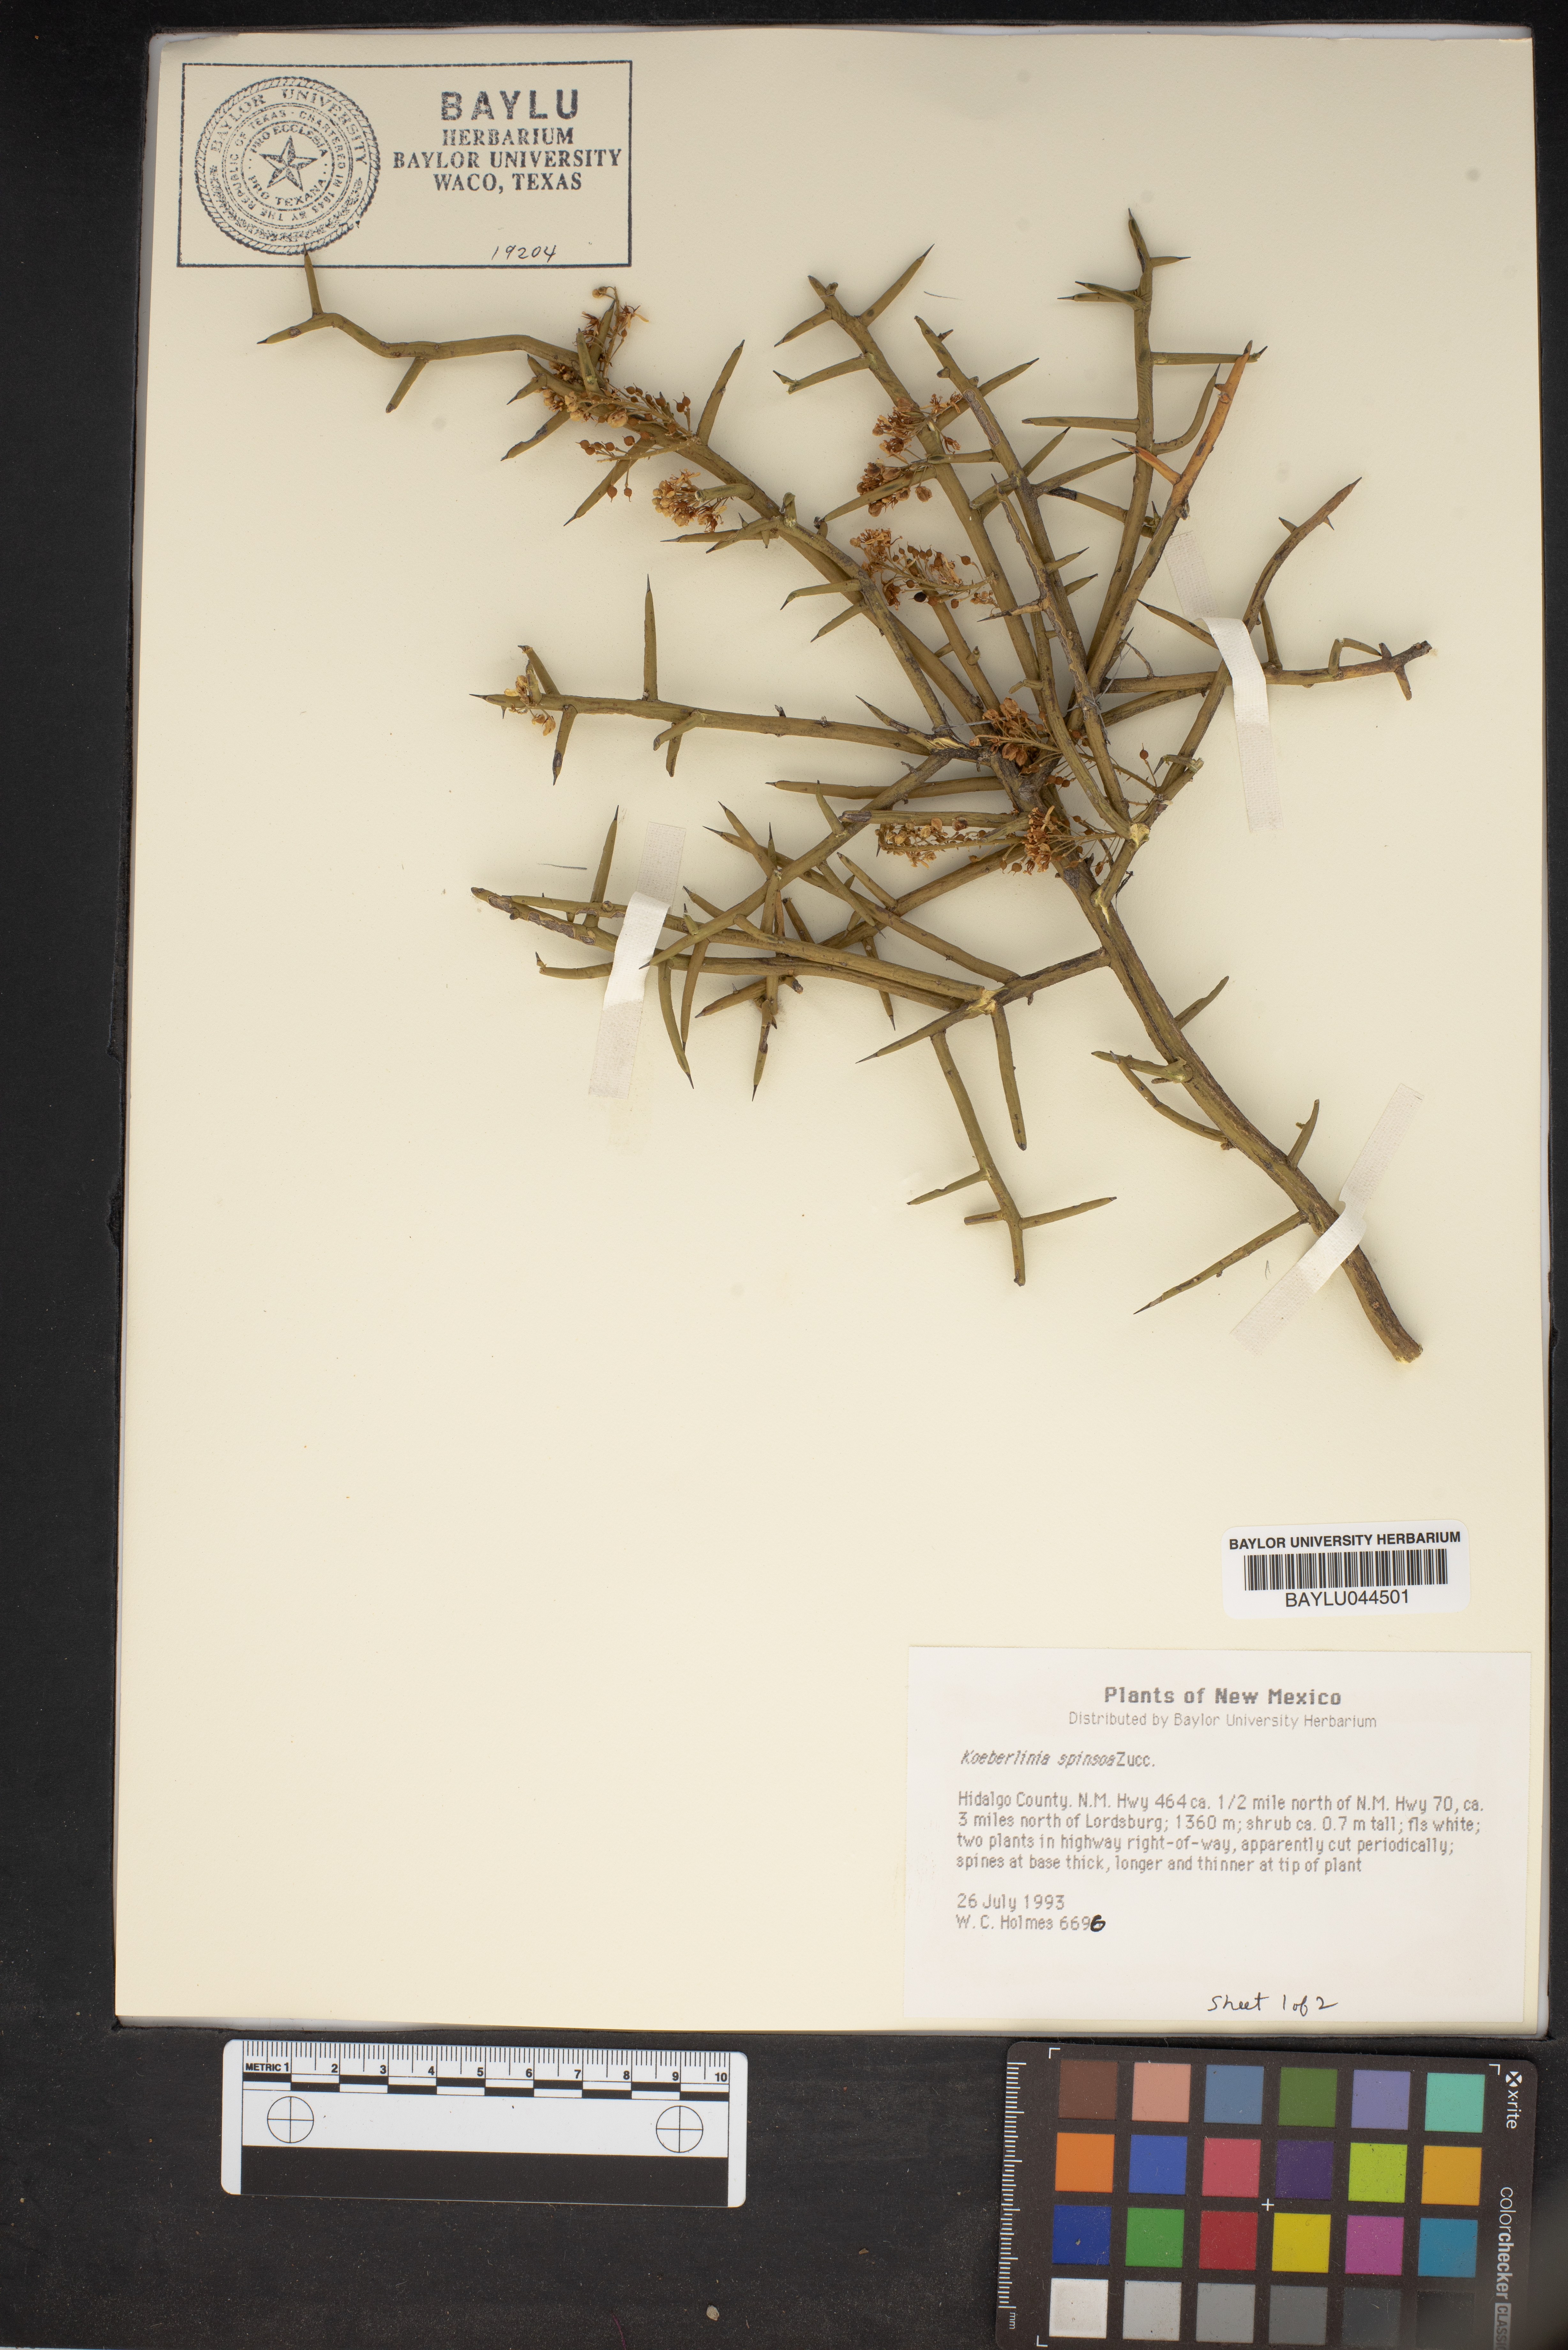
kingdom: Plantae
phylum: Tracheophyta
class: Magnoliopsida
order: Brassicales
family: Koeberliniaceae
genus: Koeberlinia
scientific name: Koeberlinia spinosa
